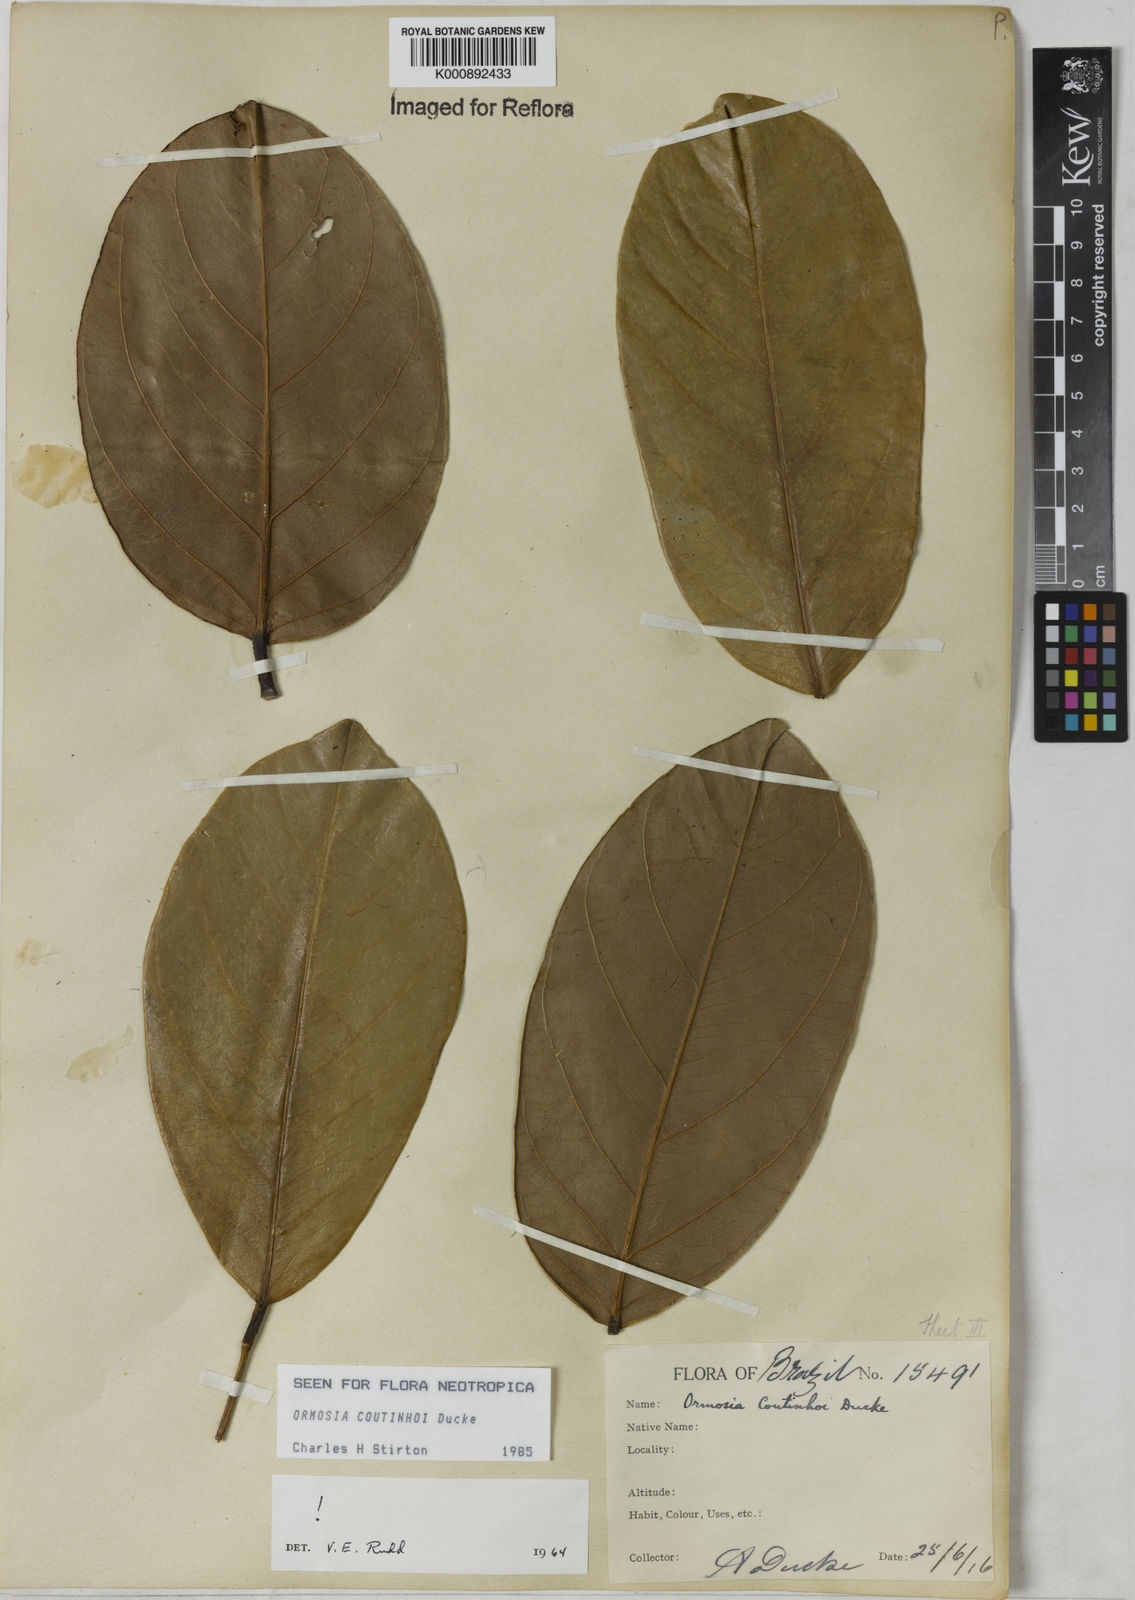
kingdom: Plantae
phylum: Tracheophyta
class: Magnoliopsida
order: Fabales
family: Fabaceae
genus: Ormosia
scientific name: Ormosia coutinhoi
